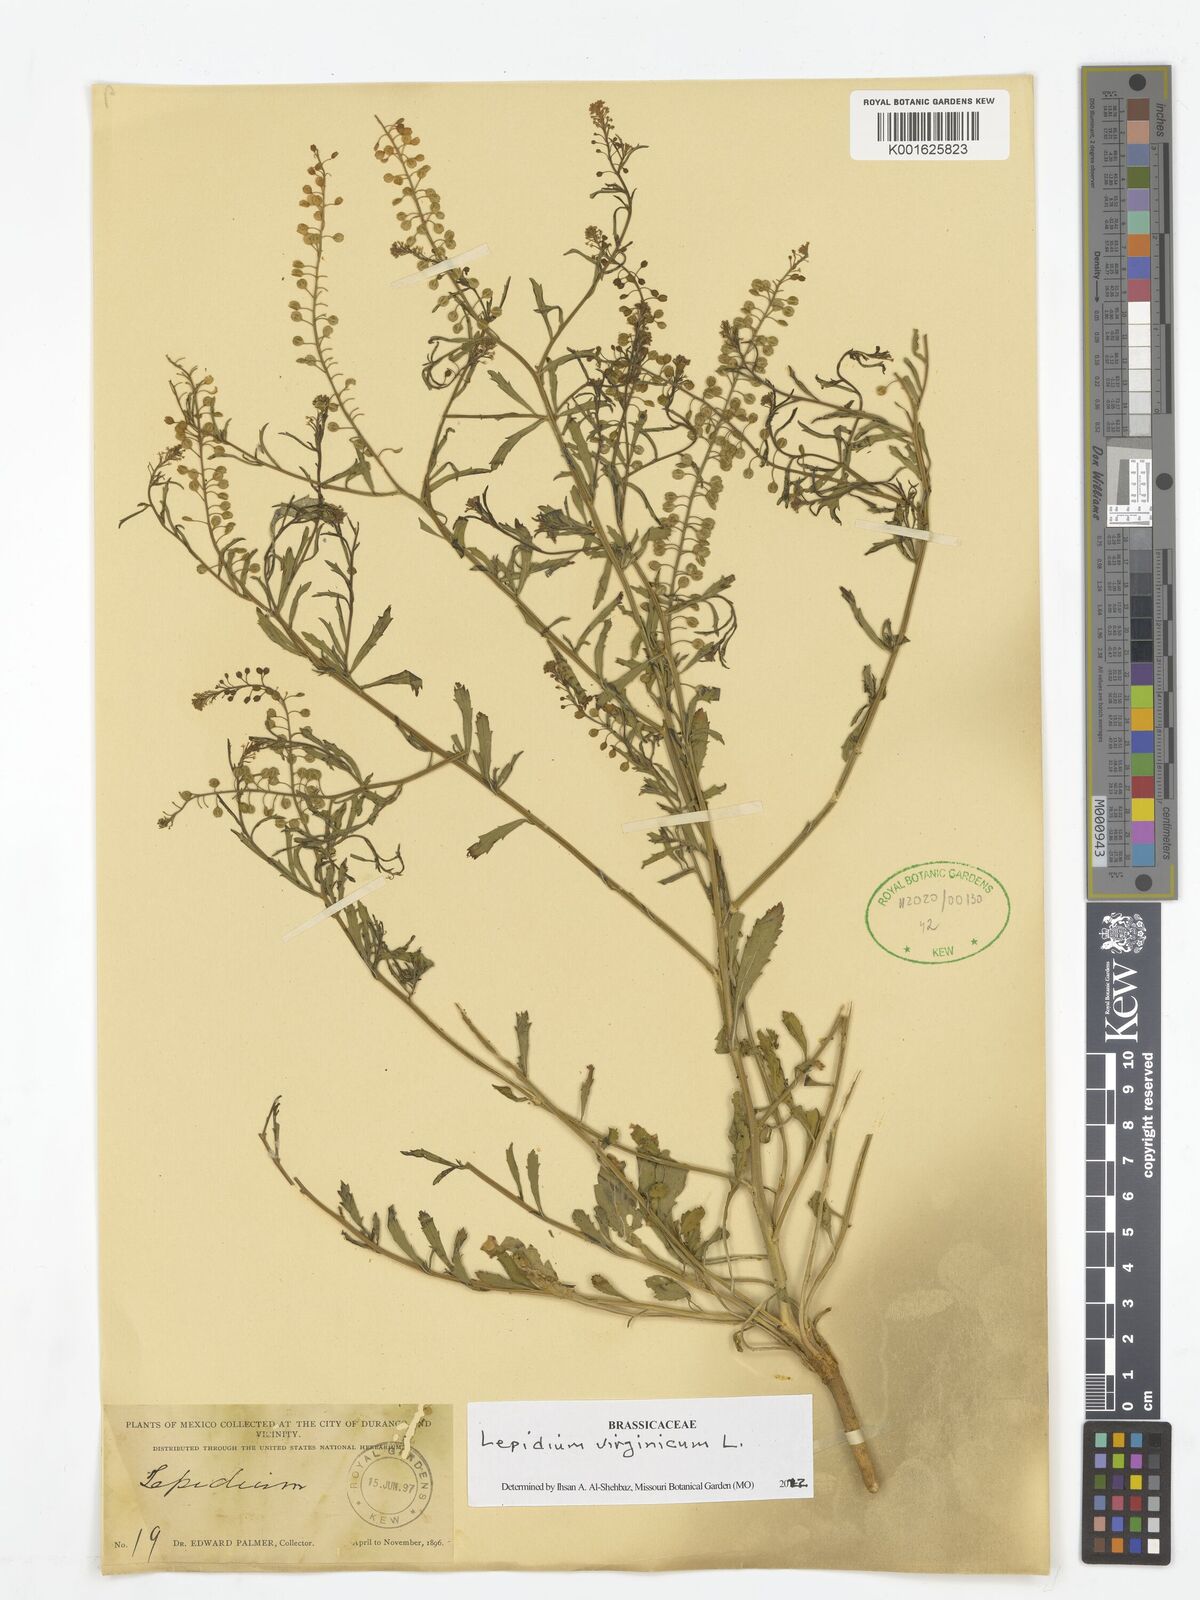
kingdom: Plantae
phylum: Tracheophyta
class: Magnoliopsida
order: Brassicales
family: Brassicaceae
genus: Lepidium
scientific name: Lepidium virginicum
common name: Least pepperwort
